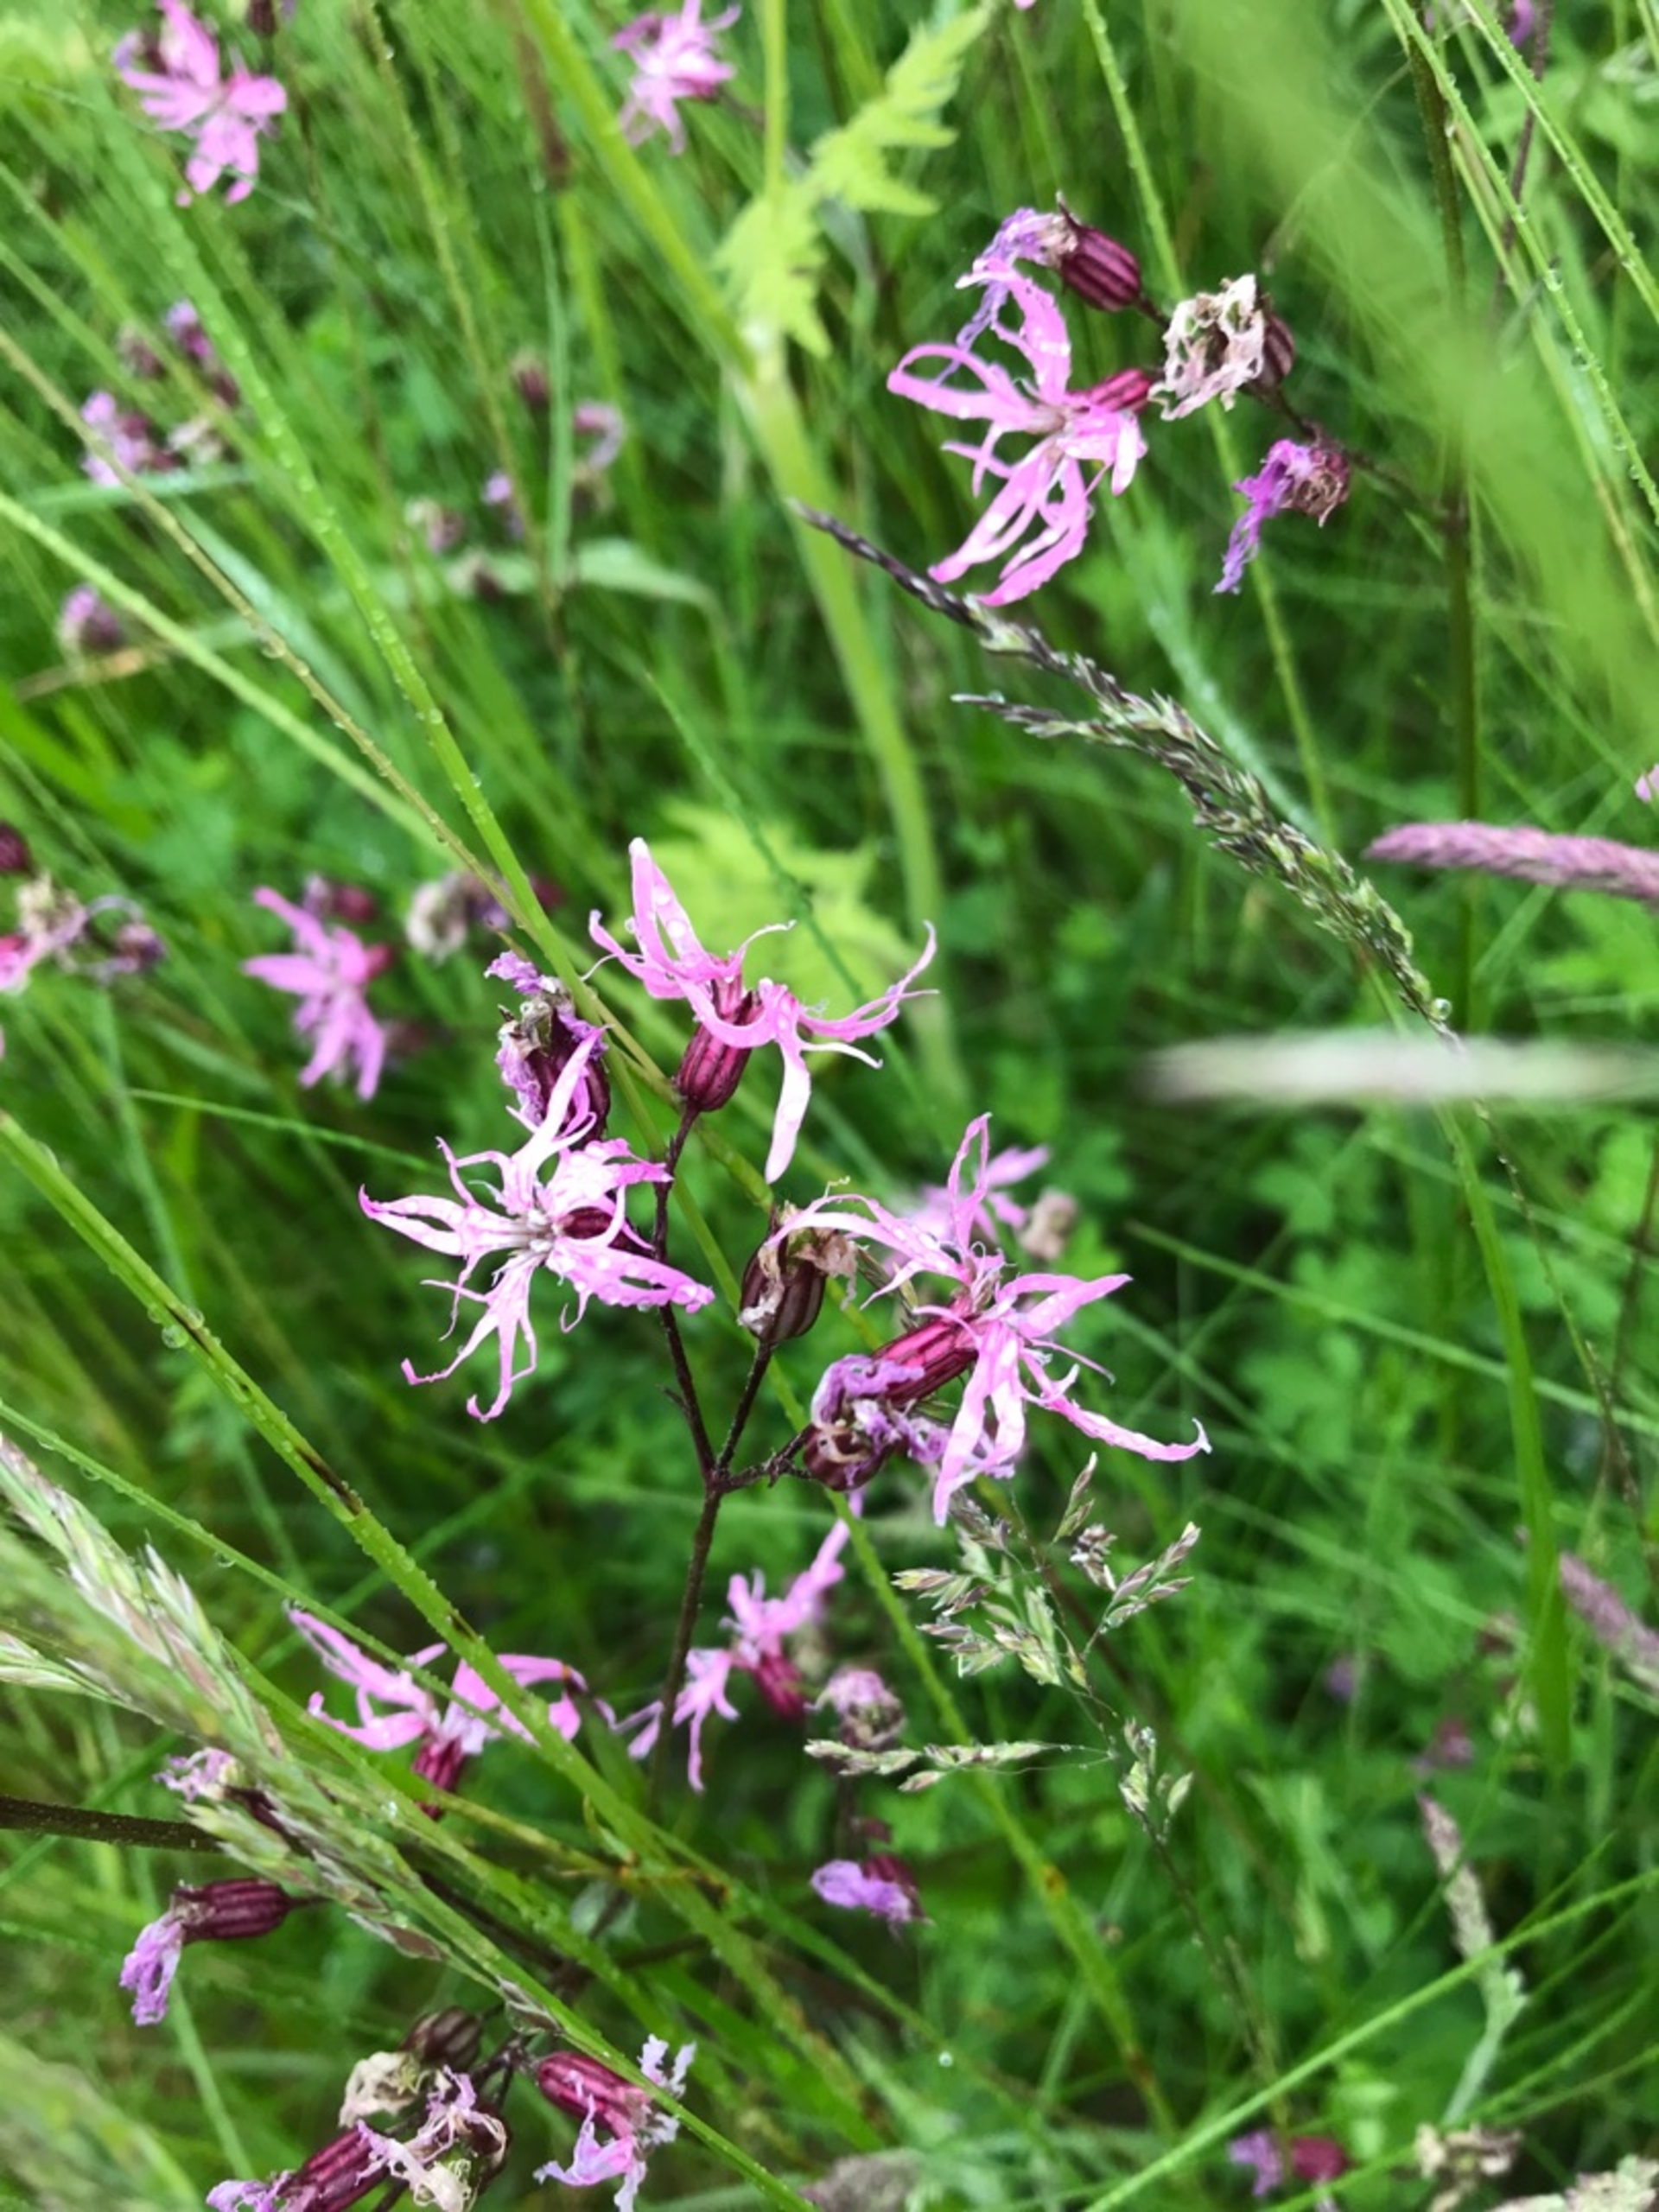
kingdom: Plantae
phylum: Tracheophyta
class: Magnoliopsida
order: Caryophyllales
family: Caryophyllaceae
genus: Silene
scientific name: Silene flos-cuculi
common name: Trævlekrone
